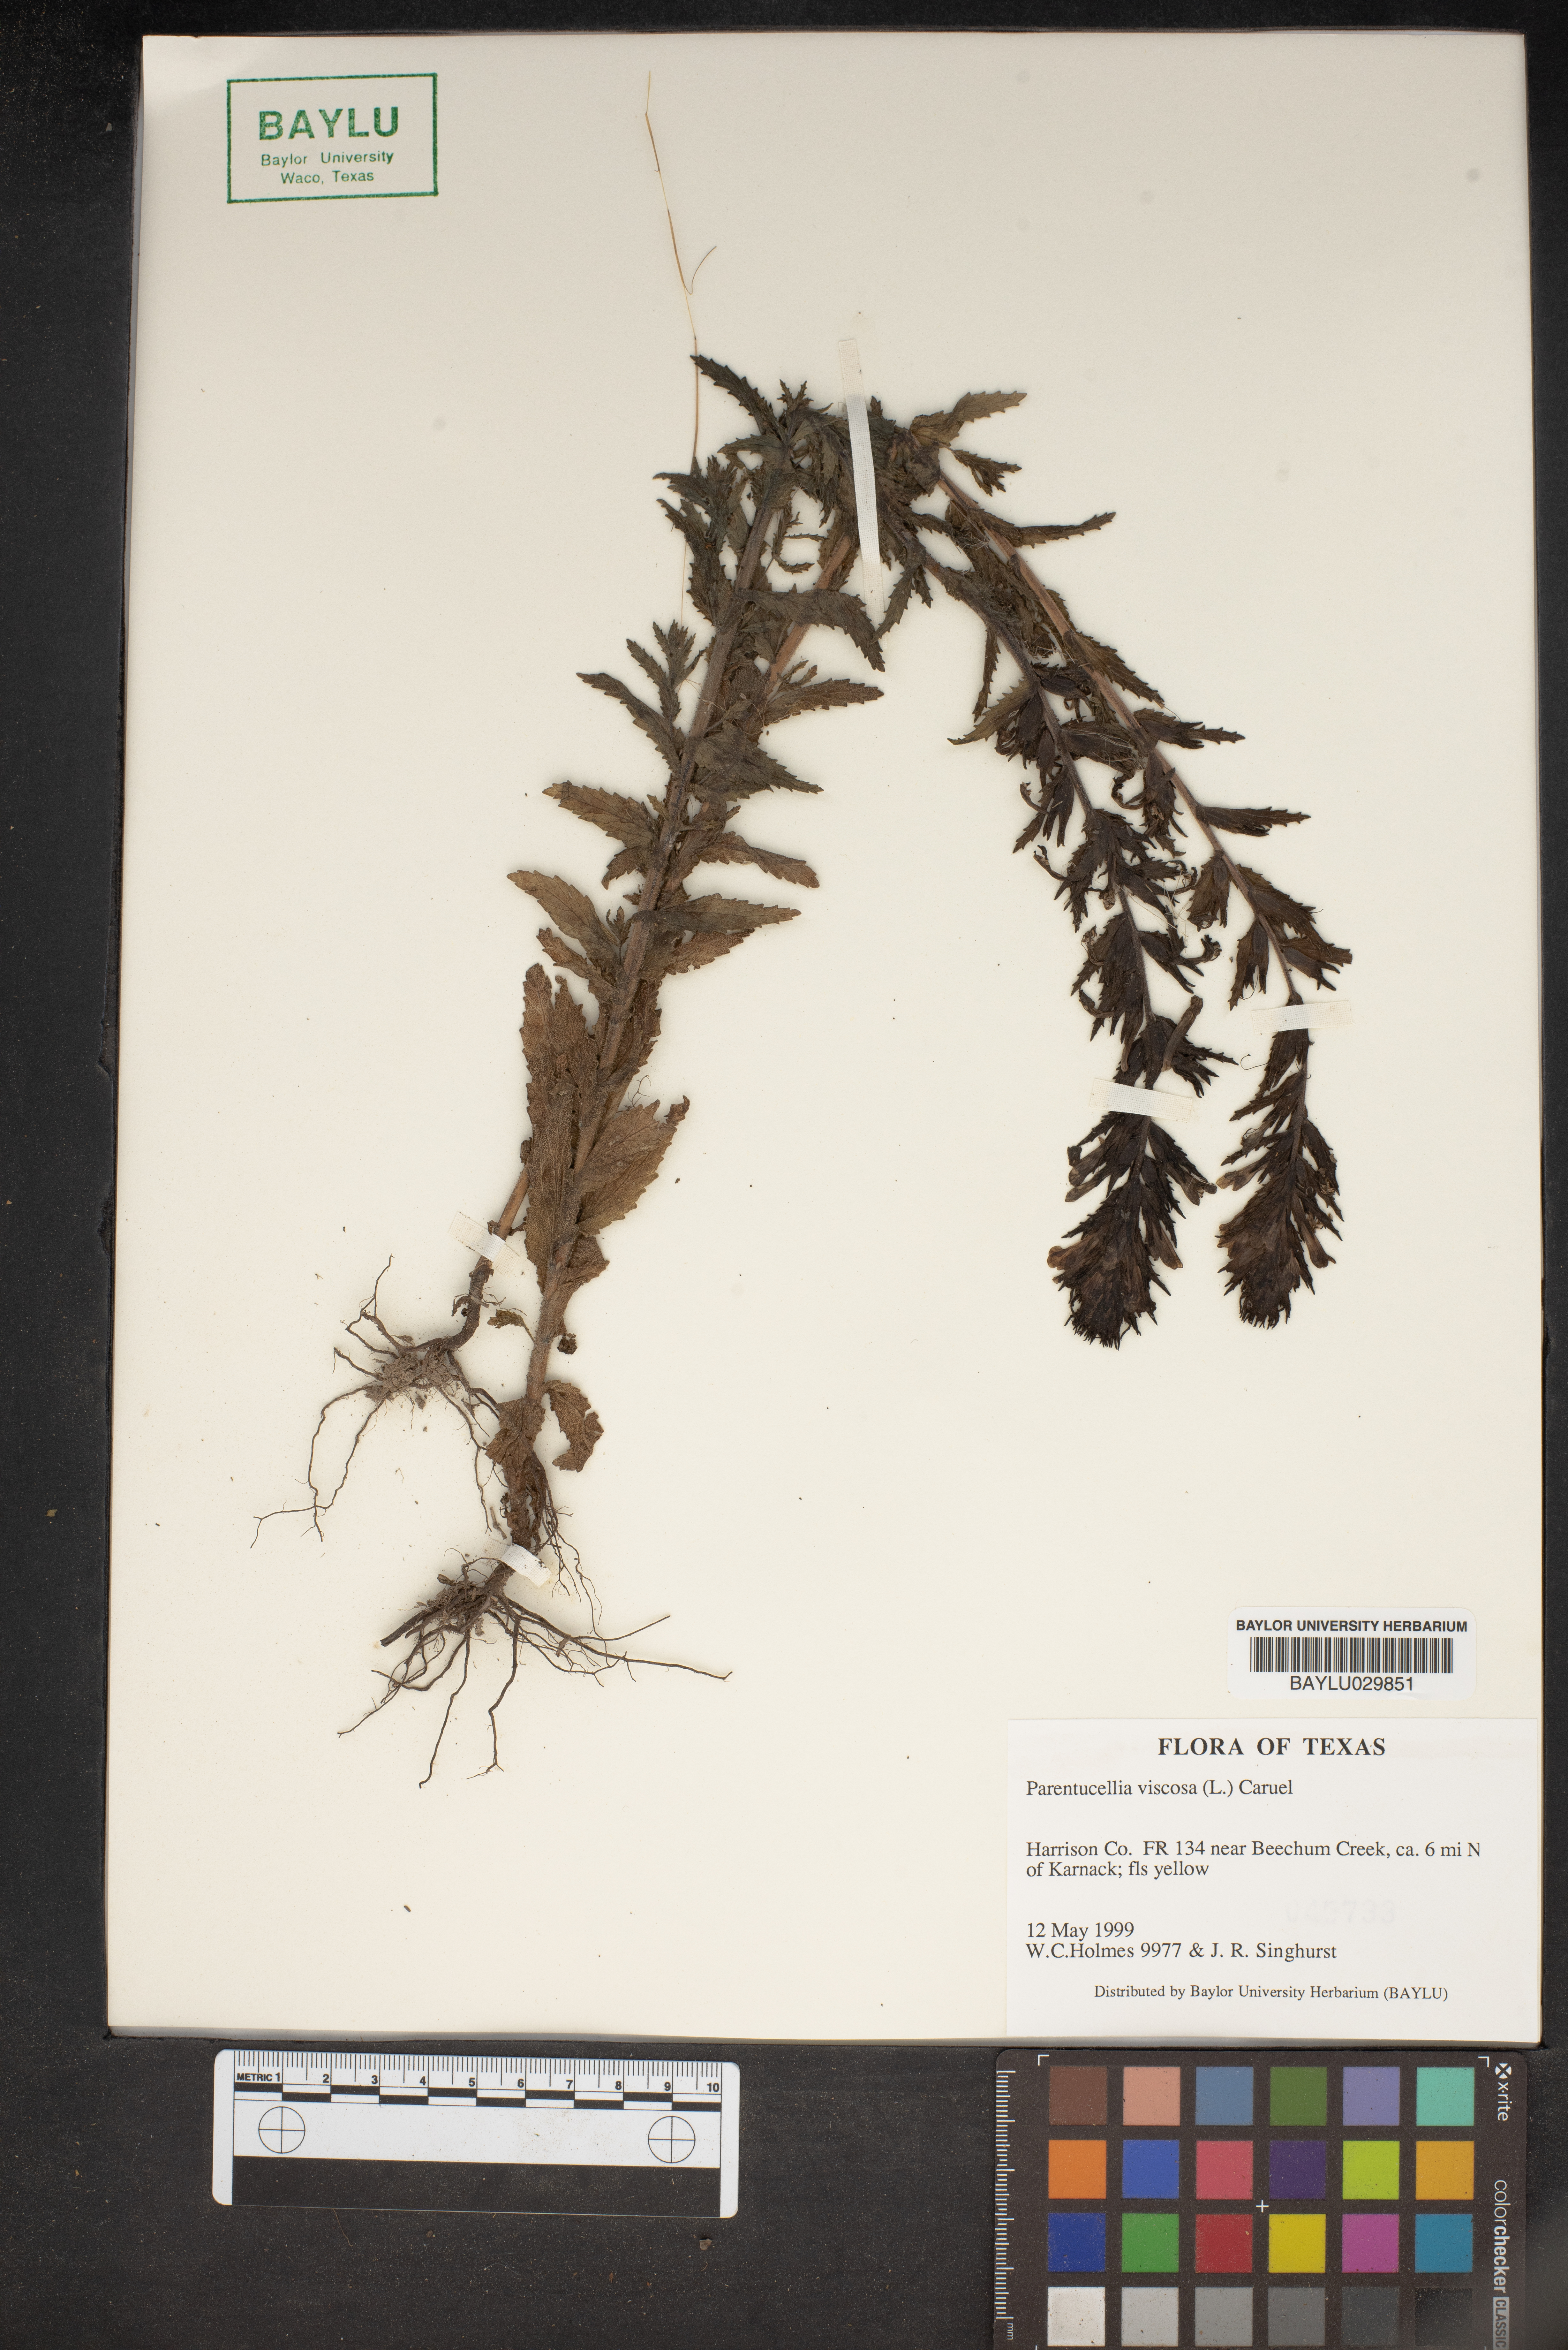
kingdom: Plantae
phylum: Tracheophyta
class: Magnoliopsida
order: Lamiales
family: Orobanchaceae
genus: Bellardia
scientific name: Bellardia viscosa
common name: Sticky parentucellia
